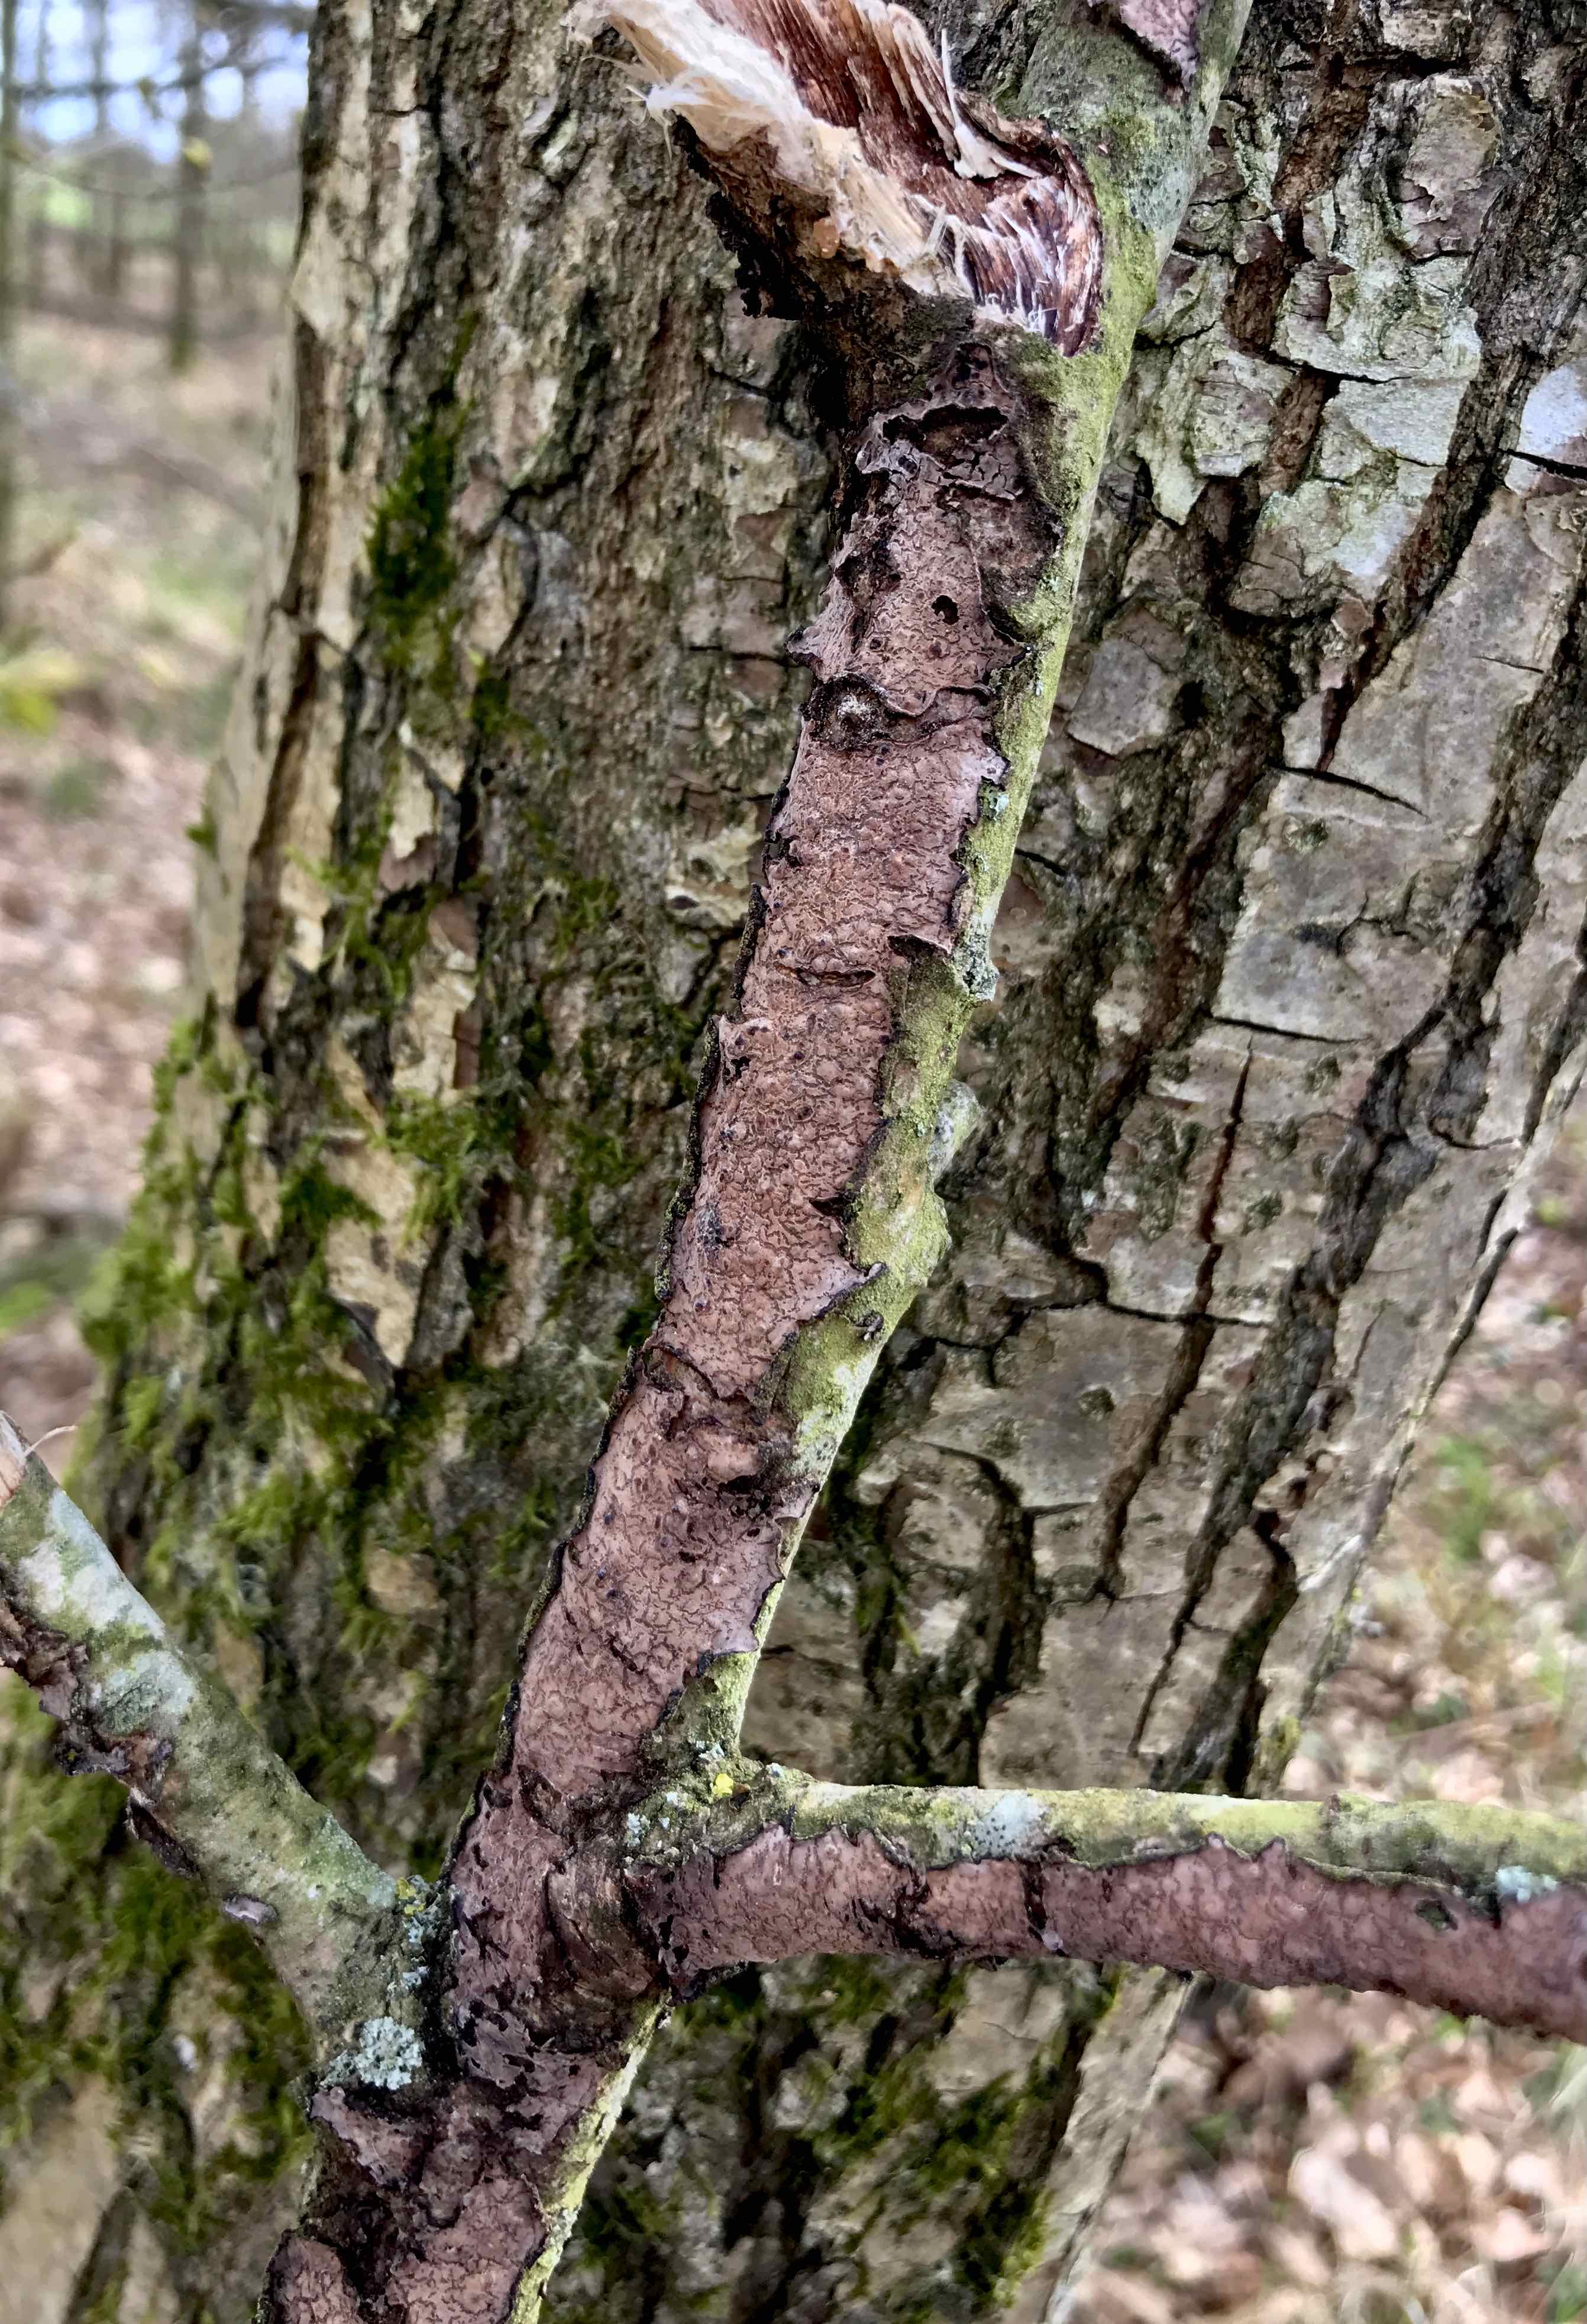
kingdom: Fungi
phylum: Basidiomycota
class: Agaricomycetes
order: Russulales
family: Peniophoraceae
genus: Peniophora
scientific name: Peniophora quercina
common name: ege-voksskind
